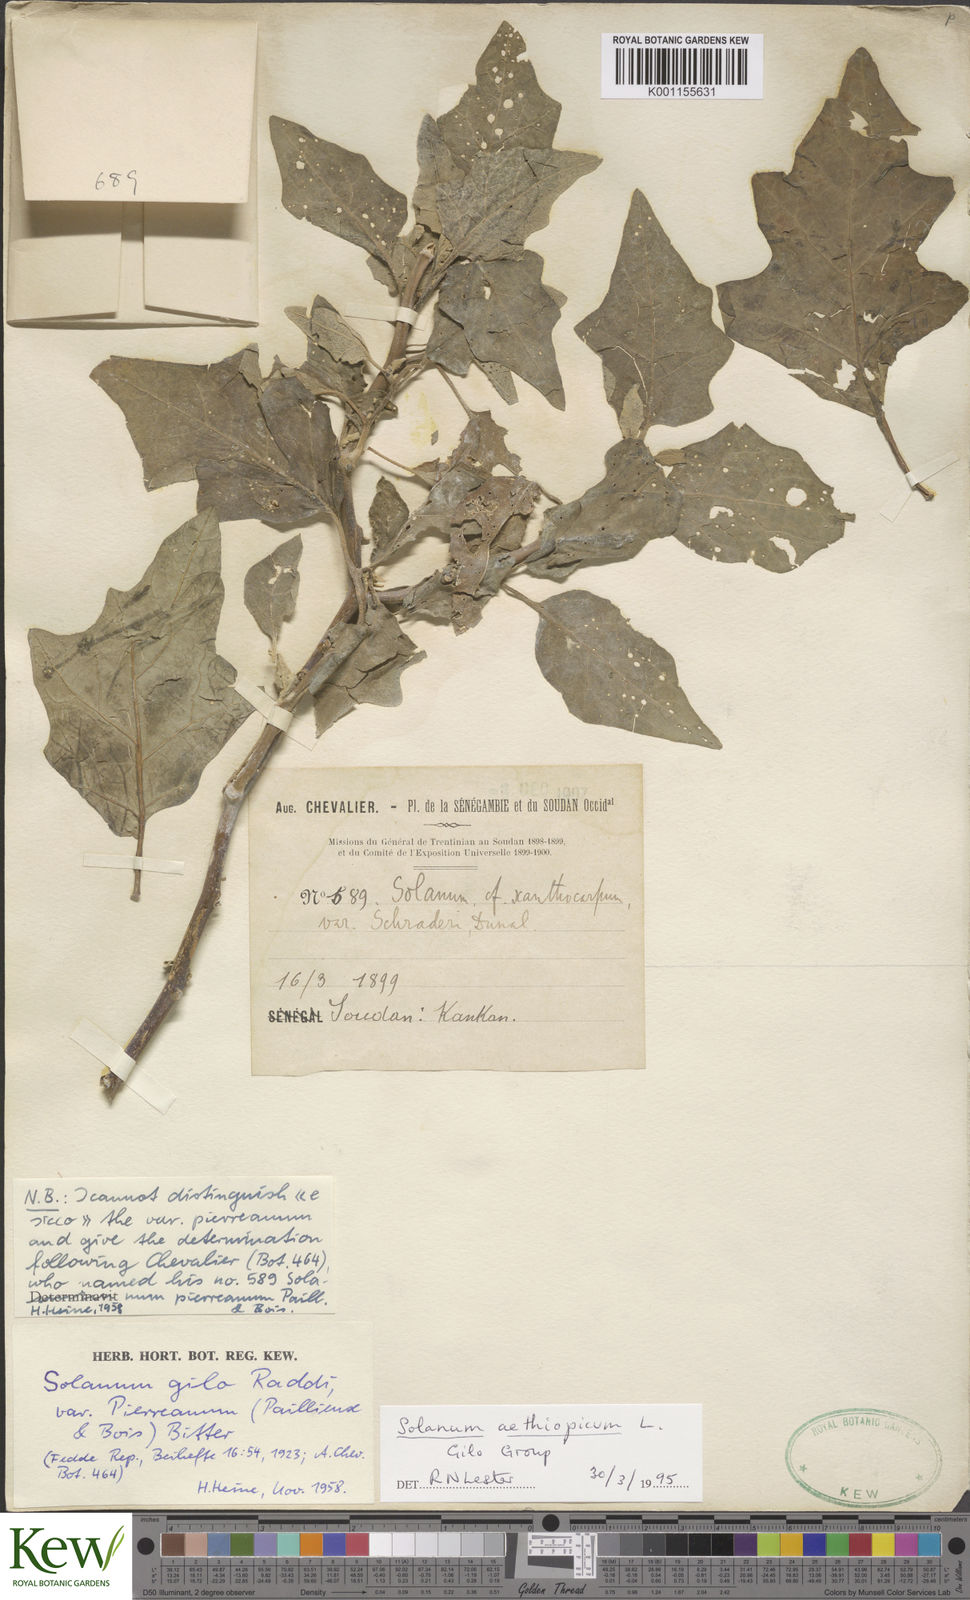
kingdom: Plantae
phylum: Tracheophyta
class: Magnoliopsida
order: Solanales
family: Solanaceae
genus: Solanum
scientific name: Solanum aethiopicum
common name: Gilo
